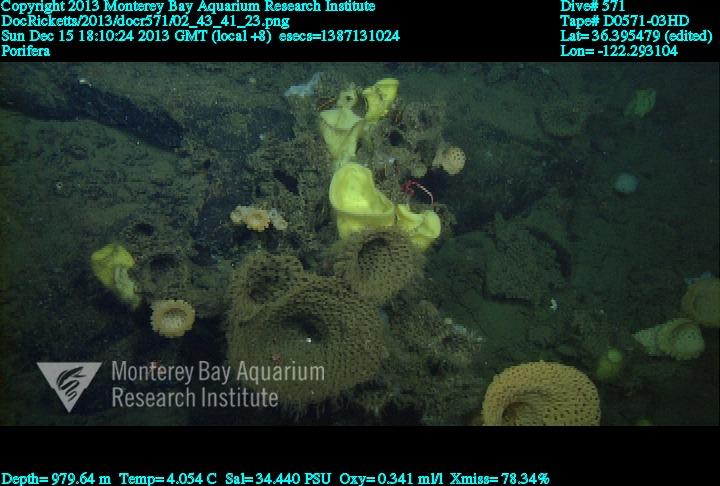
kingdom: Animalia
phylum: Porifera
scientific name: Porifera
